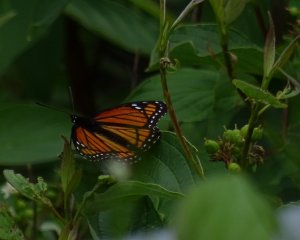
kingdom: Animalia
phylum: Arthropoda
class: Insecta
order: Lepidoptera
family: Nymphalidae
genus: Limenitis
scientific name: Limenitis archippus
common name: Viceroy
